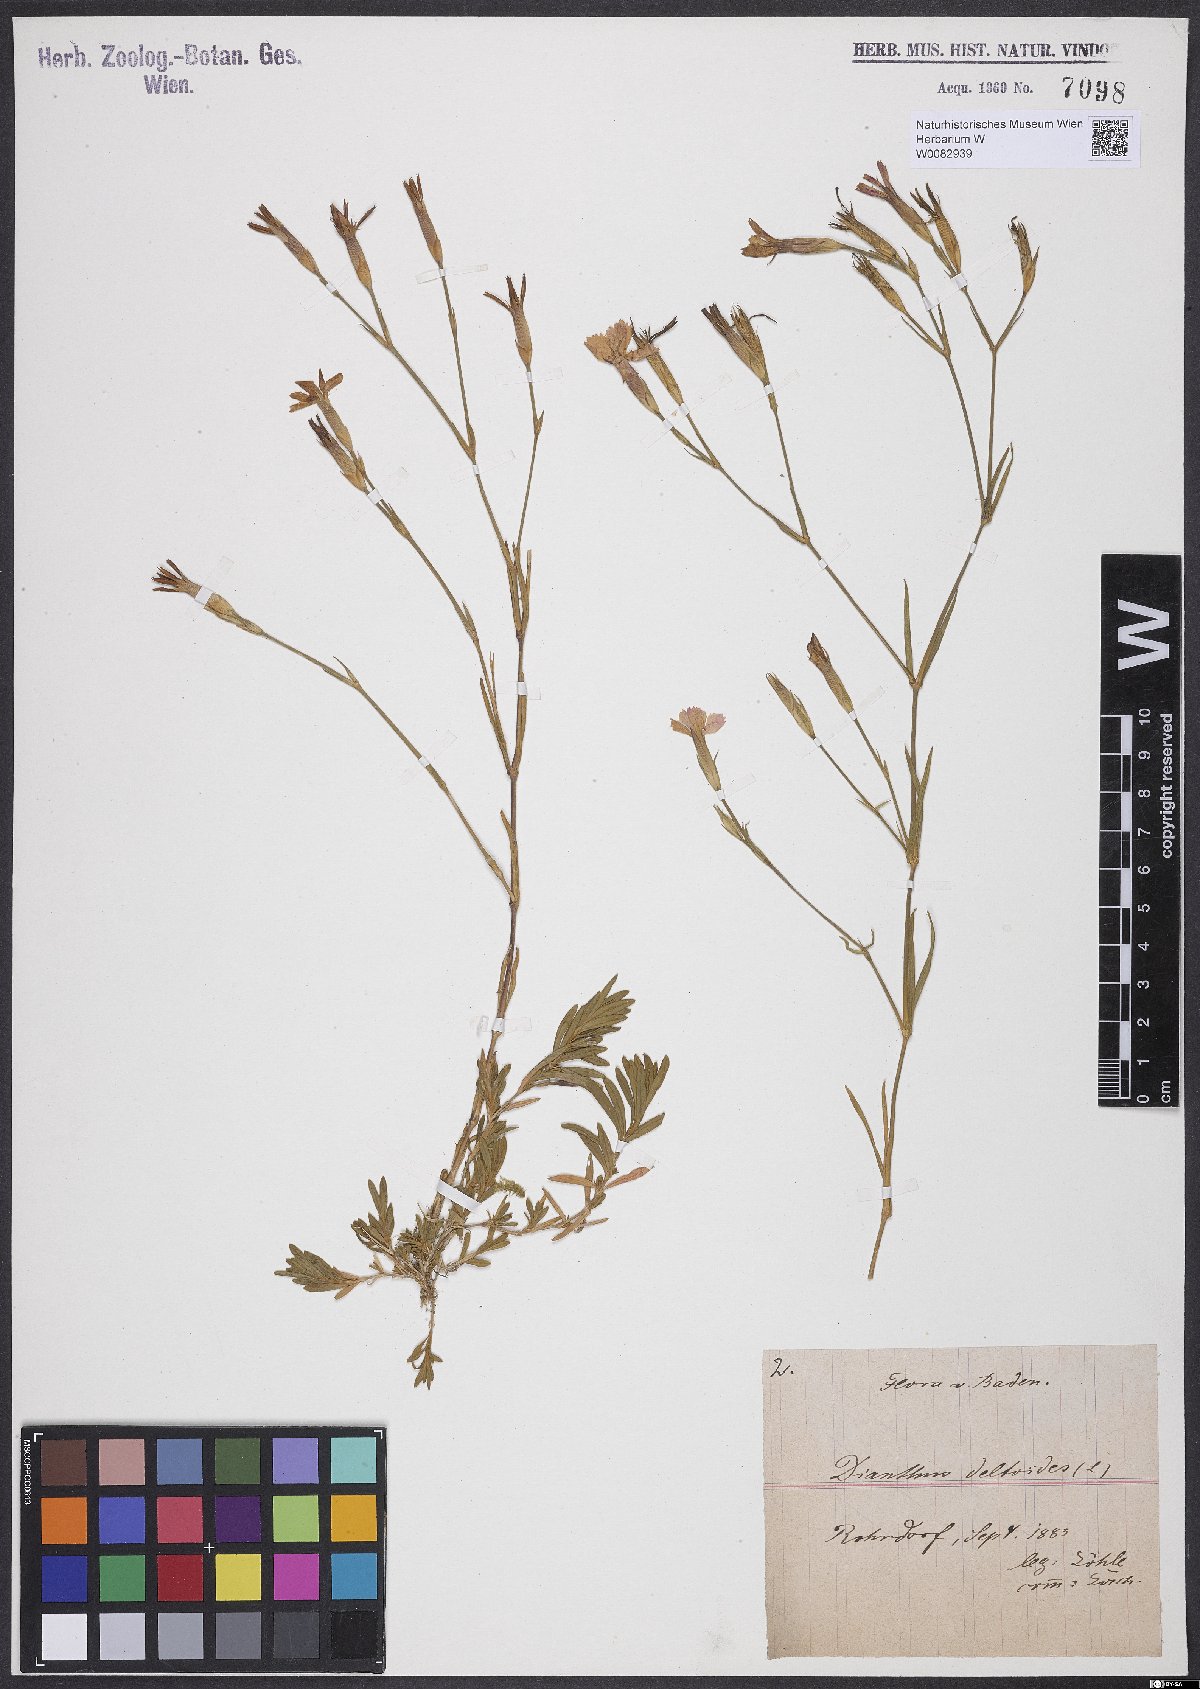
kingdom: Plantae
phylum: Tracheophyta
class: Magnoliopsida
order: Caryophyllales
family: Caryophyllaceae
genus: Dianthus
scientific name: Dianthus deltoides
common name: Maiden pink
